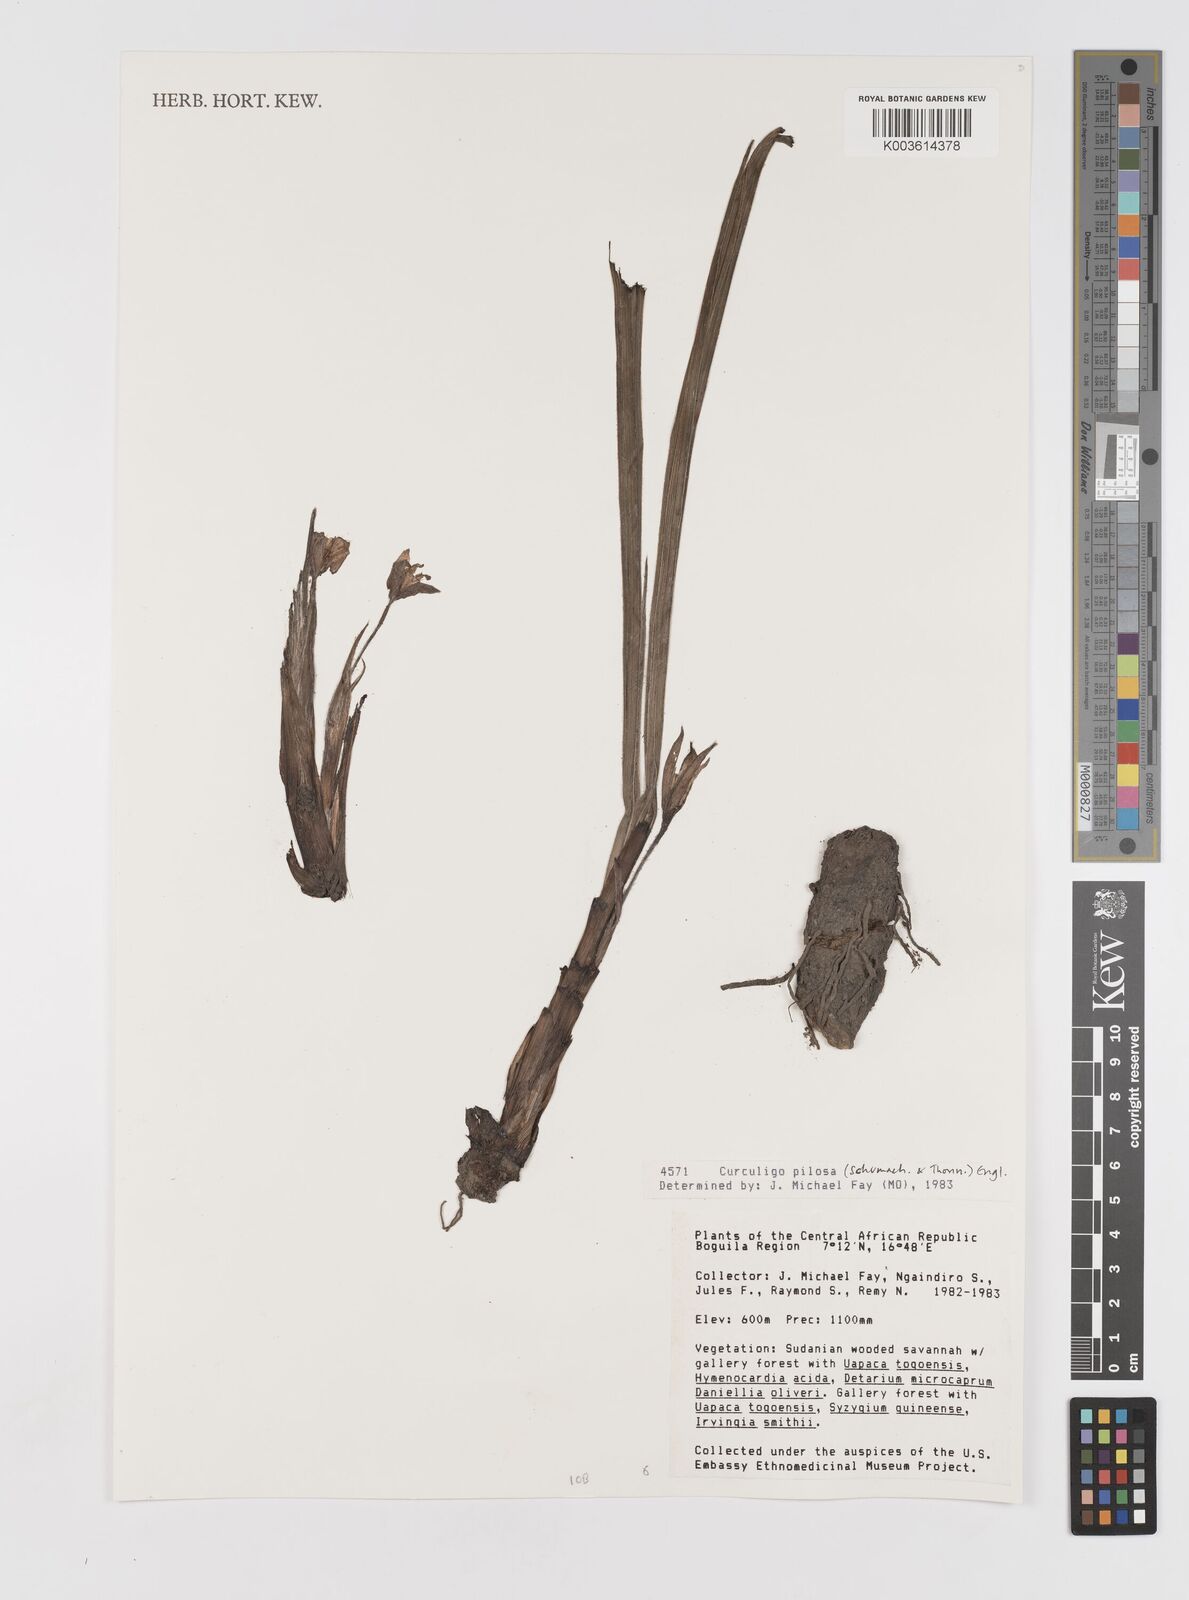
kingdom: Plantae
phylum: Tracheophyta
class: Liliopsida
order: Asparagales
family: Hypoxidaceae
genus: Curculigo
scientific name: Curculigo pilosa
